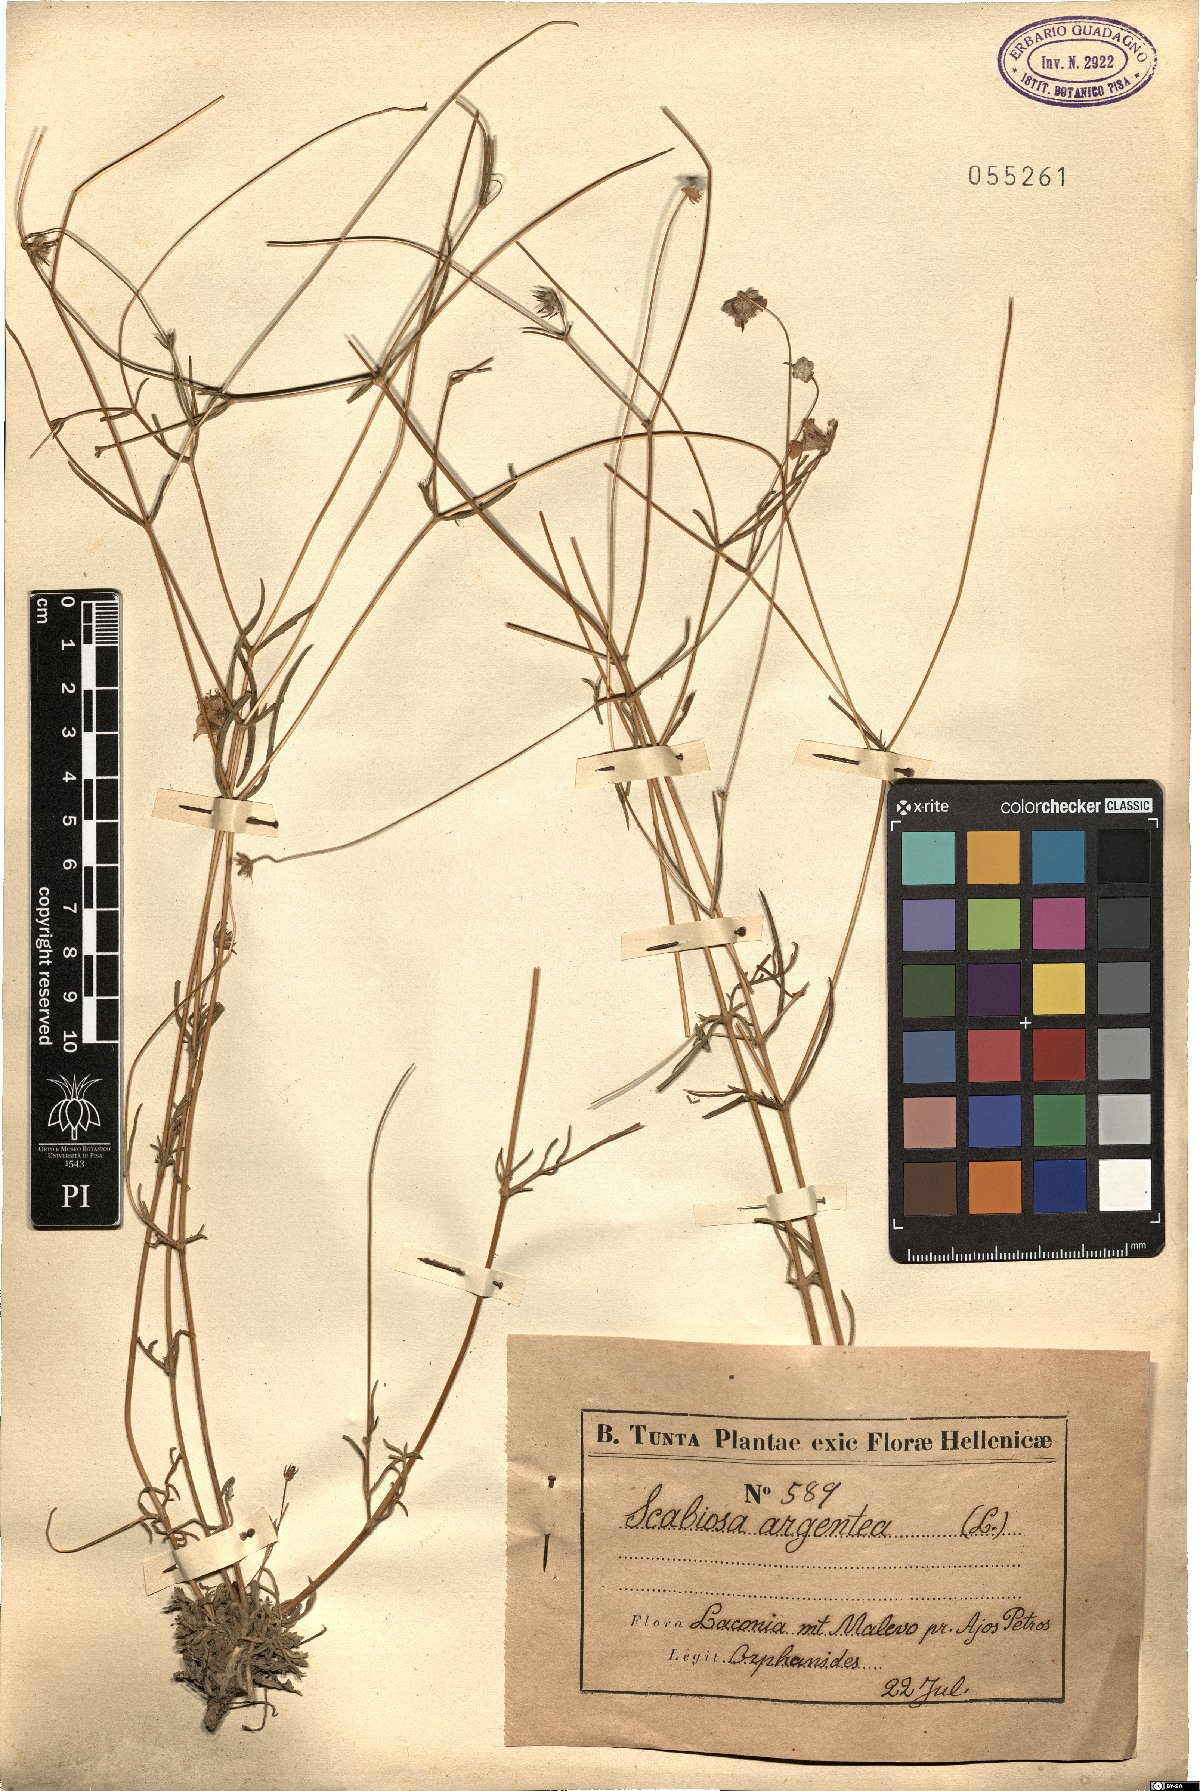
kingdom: Plantae
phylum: Tracheophyta
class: Magnoliopsida
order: Dipsacales
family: Caprifoliaceae
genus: Lomelosia
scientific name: Lomelosia argentea
